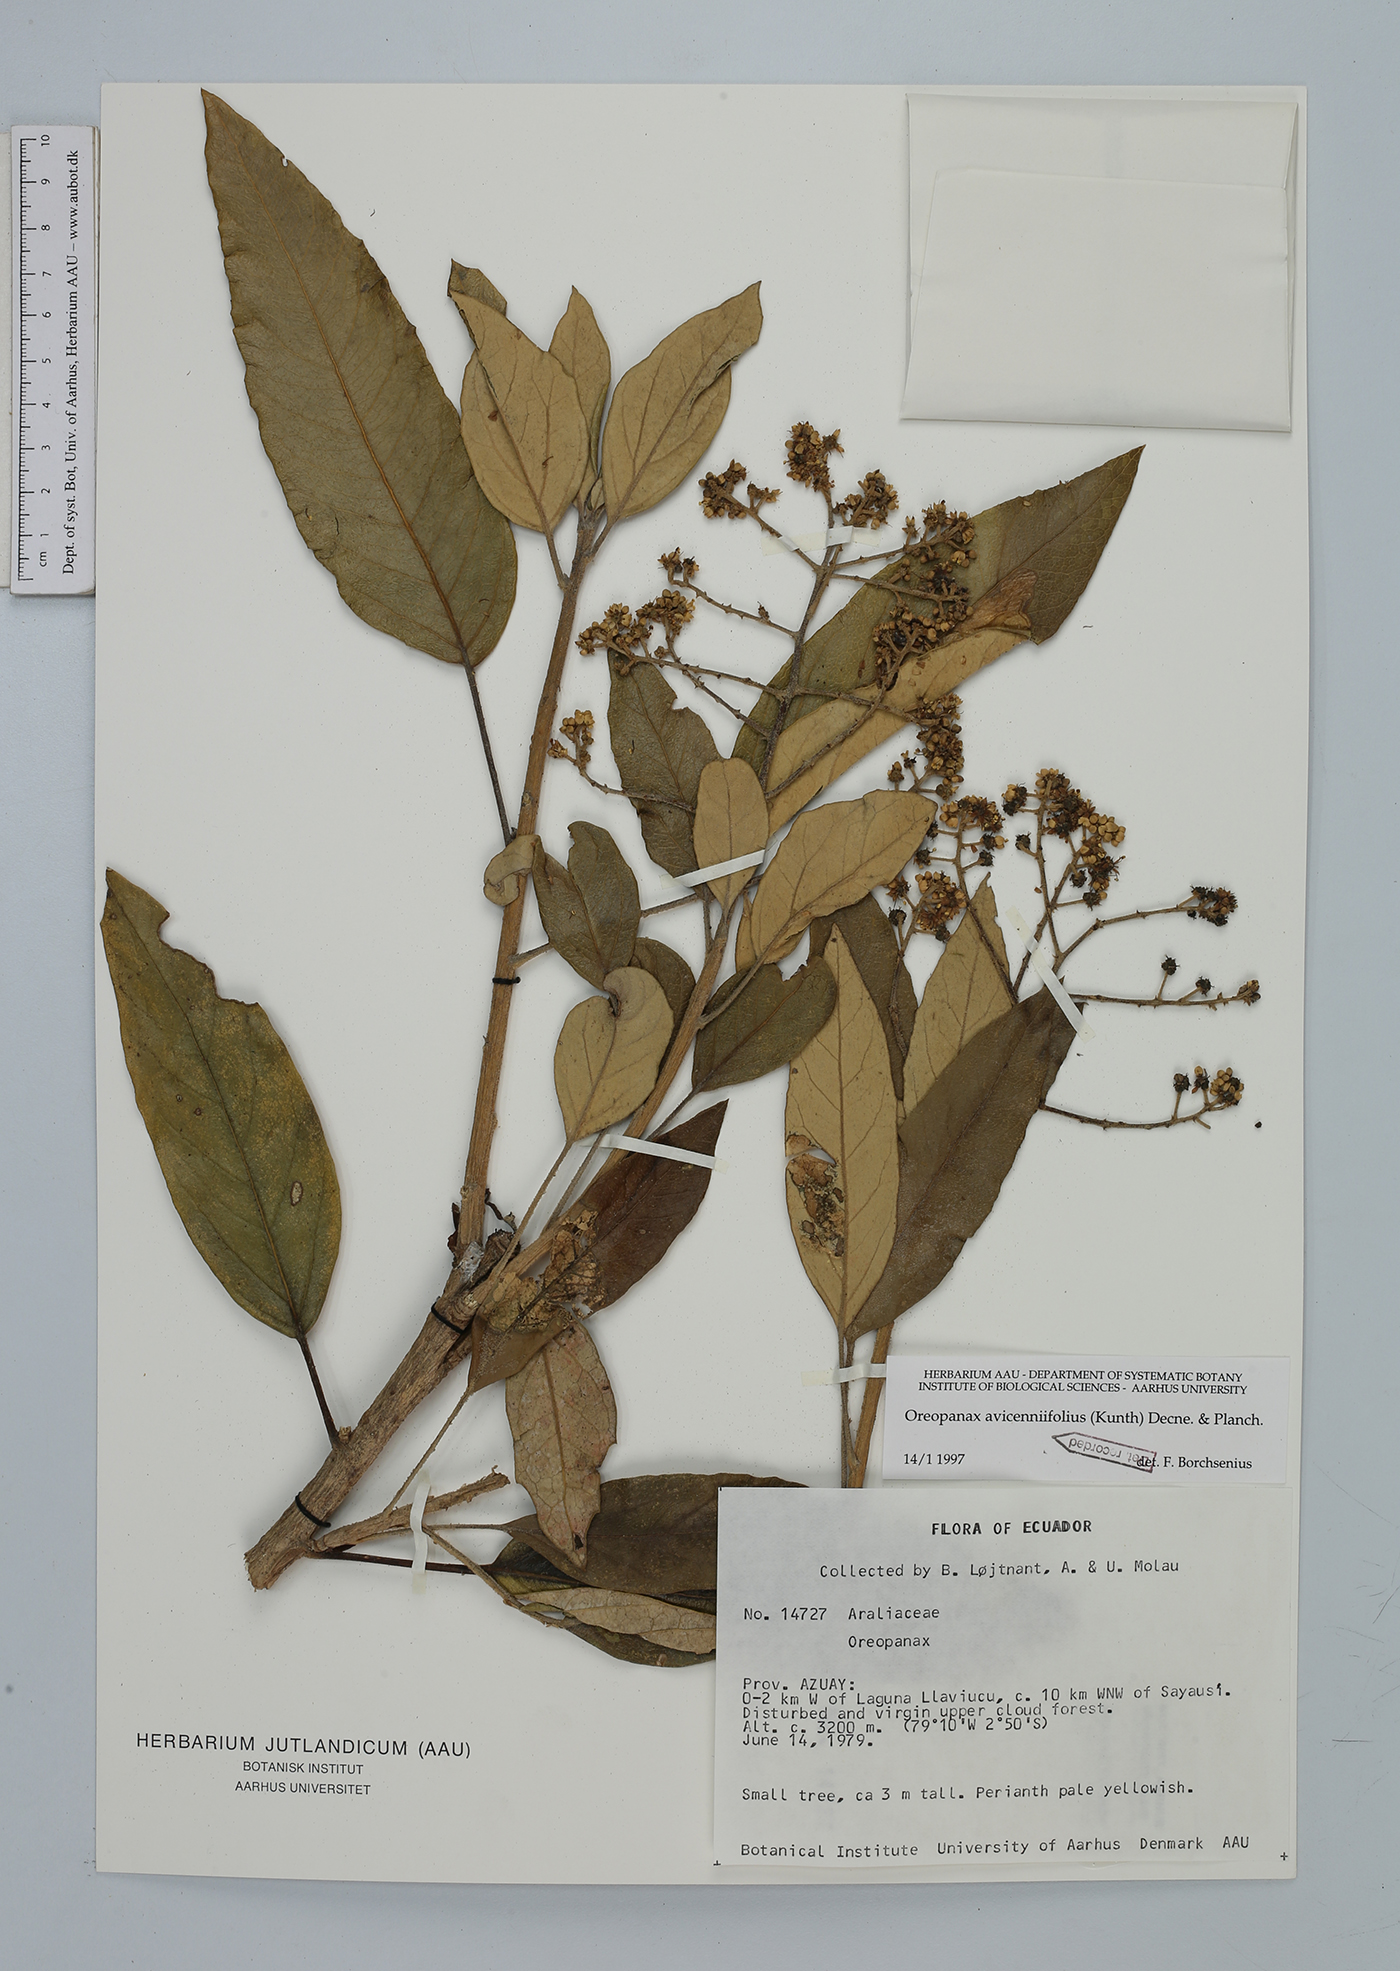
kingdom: Plantae
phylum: Tracheophyta
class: Magnoliopsida
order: Apiales
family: Araliaceae
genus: Oreopanax
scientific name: Oreopanax avicenniifolius
